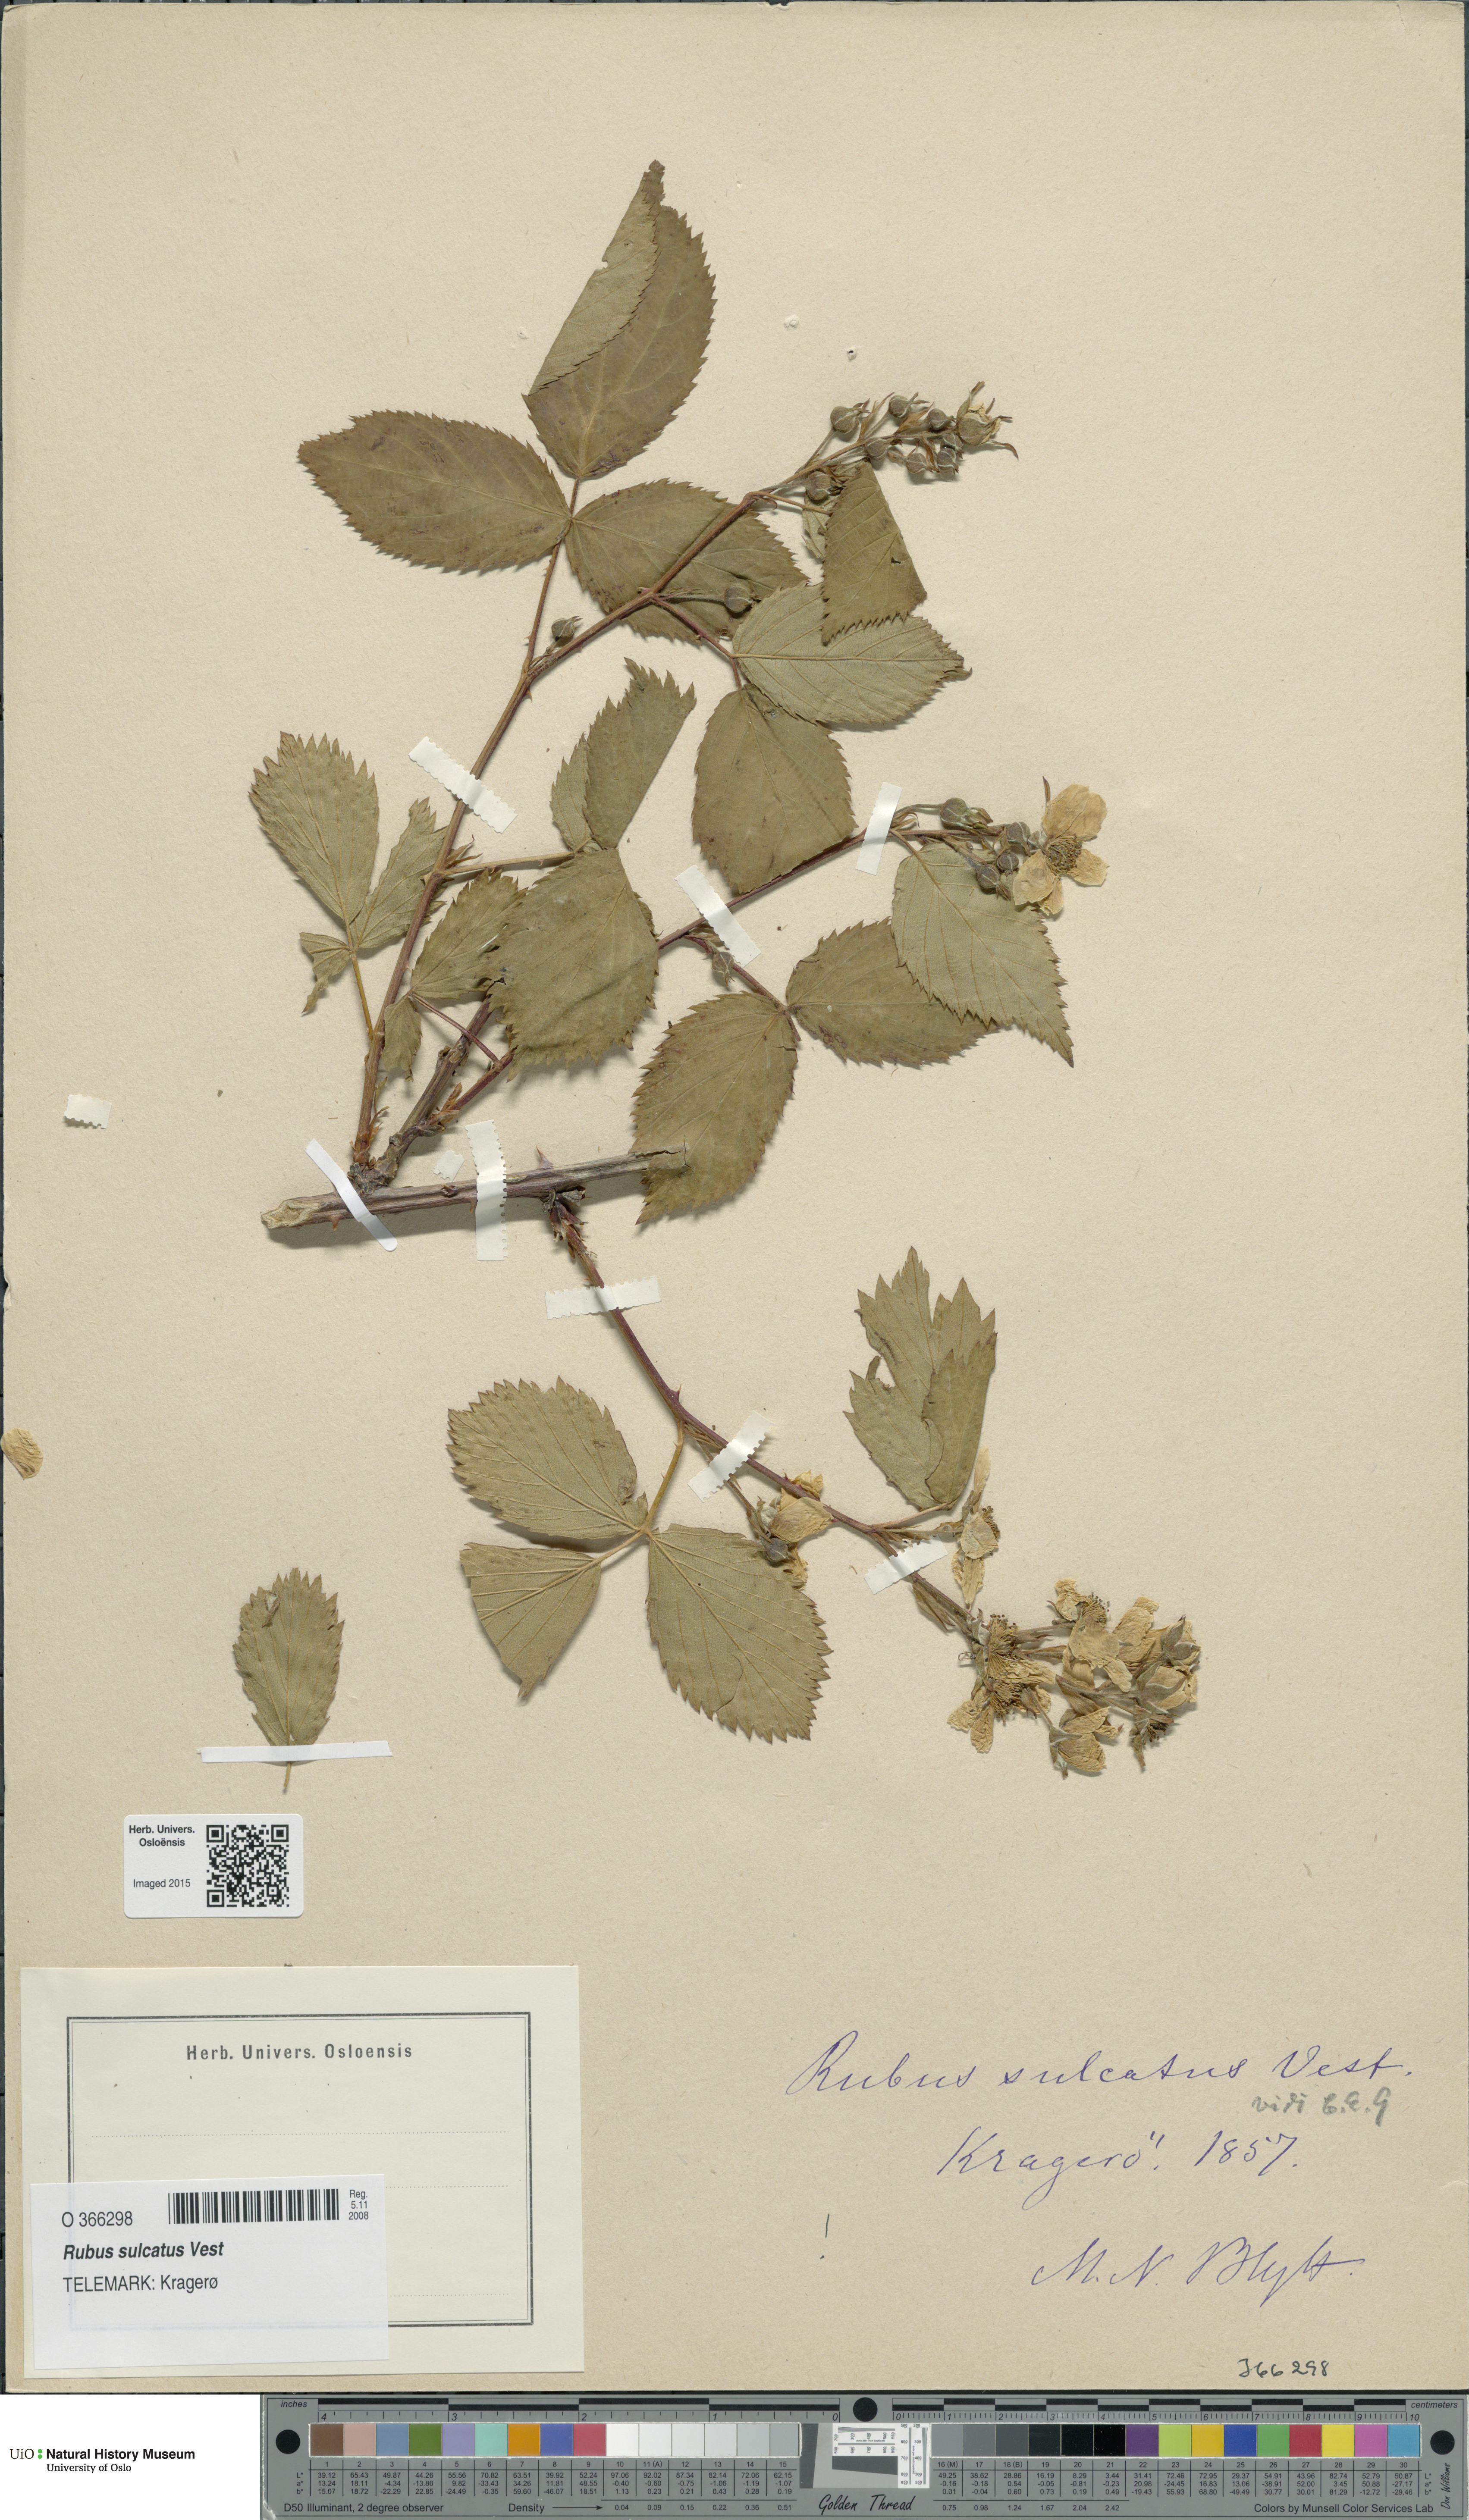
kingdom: Plantae
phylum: Tracheophyta
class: Magnoliopsida
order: Rosales
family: Rosaceae
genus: Rubus
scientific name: Rubus sulcatus
